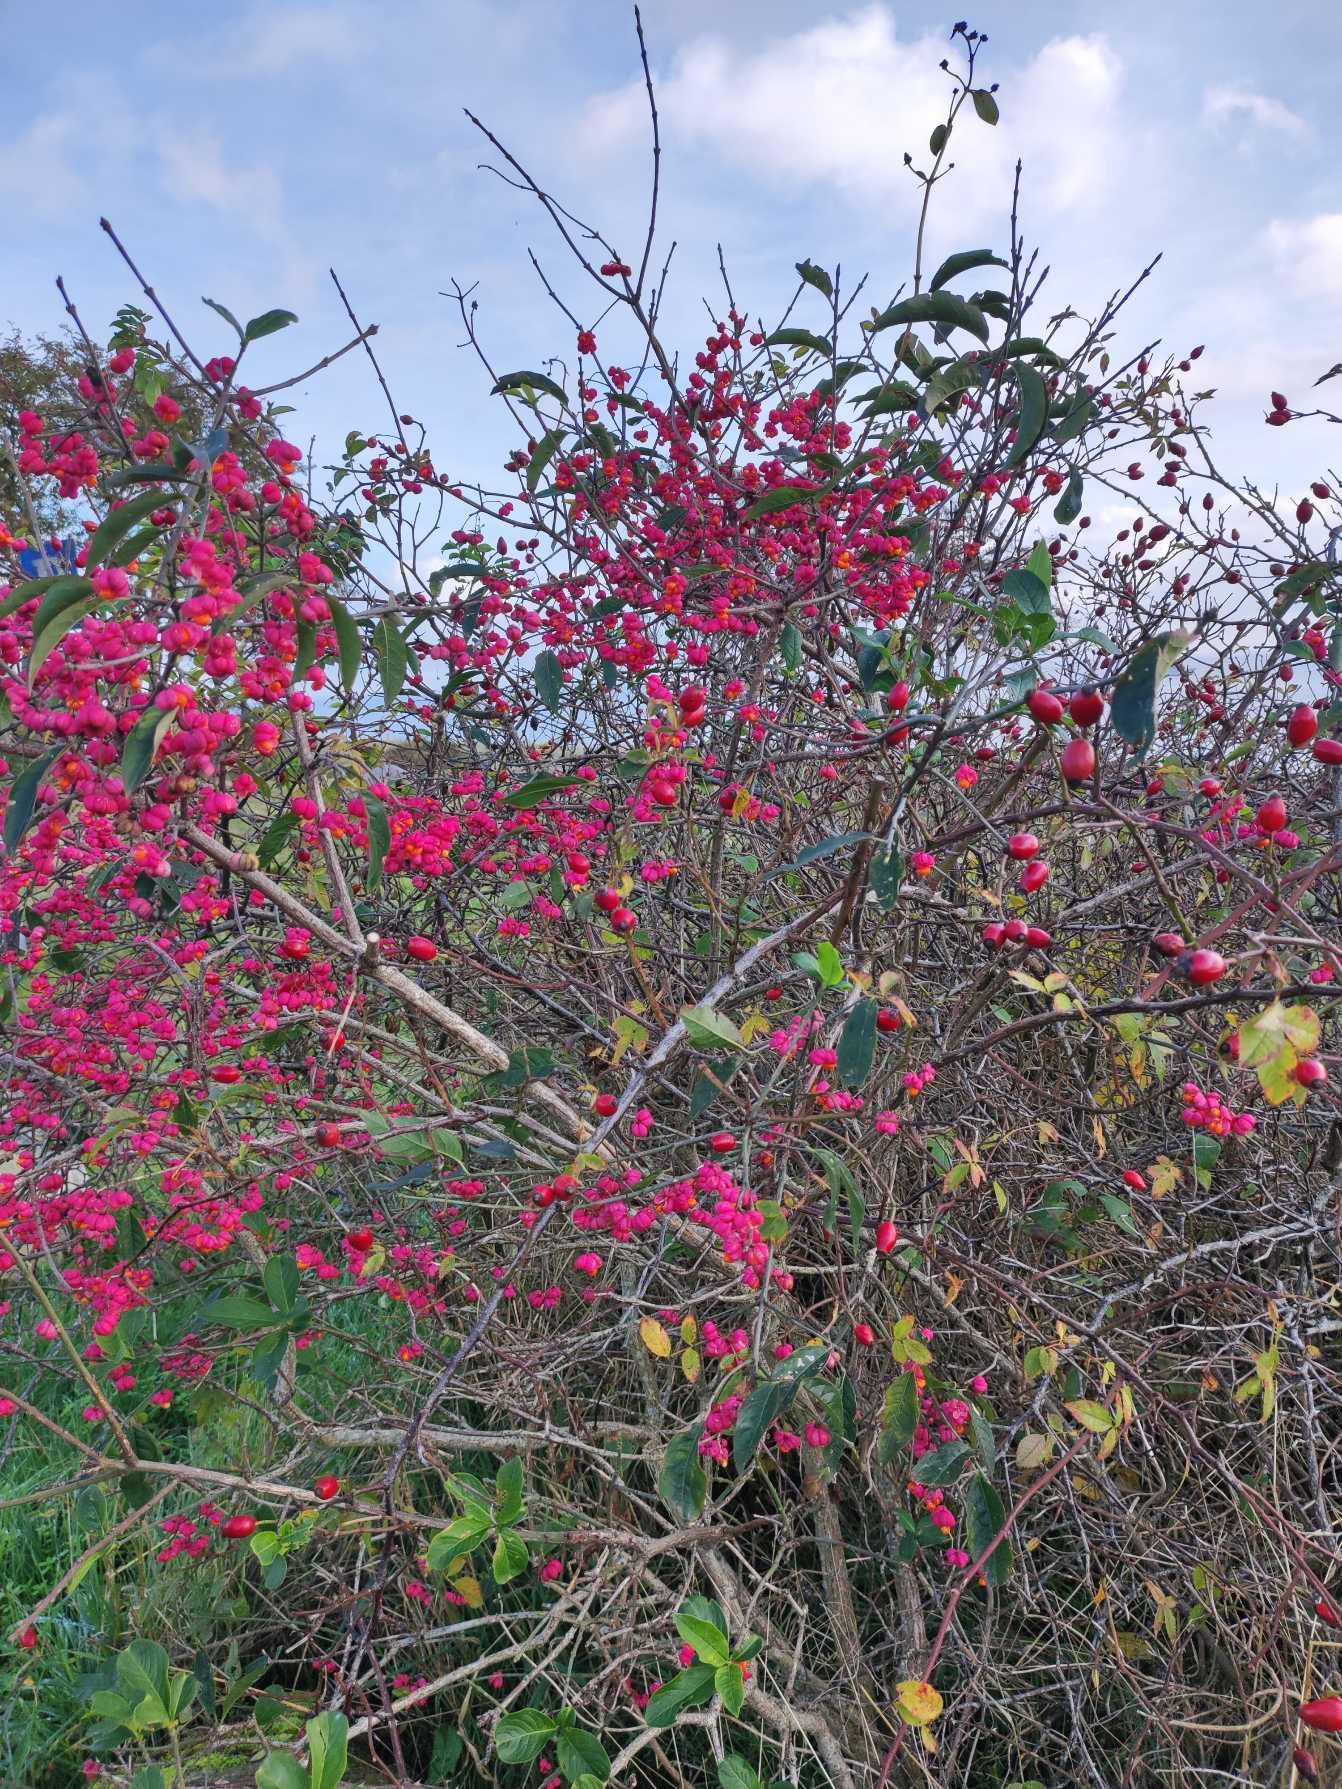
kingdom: Plantae
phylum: Tracheophyta
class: Magnoliopsida
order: Celastrales
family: Celastraceae
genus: Euonymus
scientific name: Euonymus europaeus
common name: Benved
